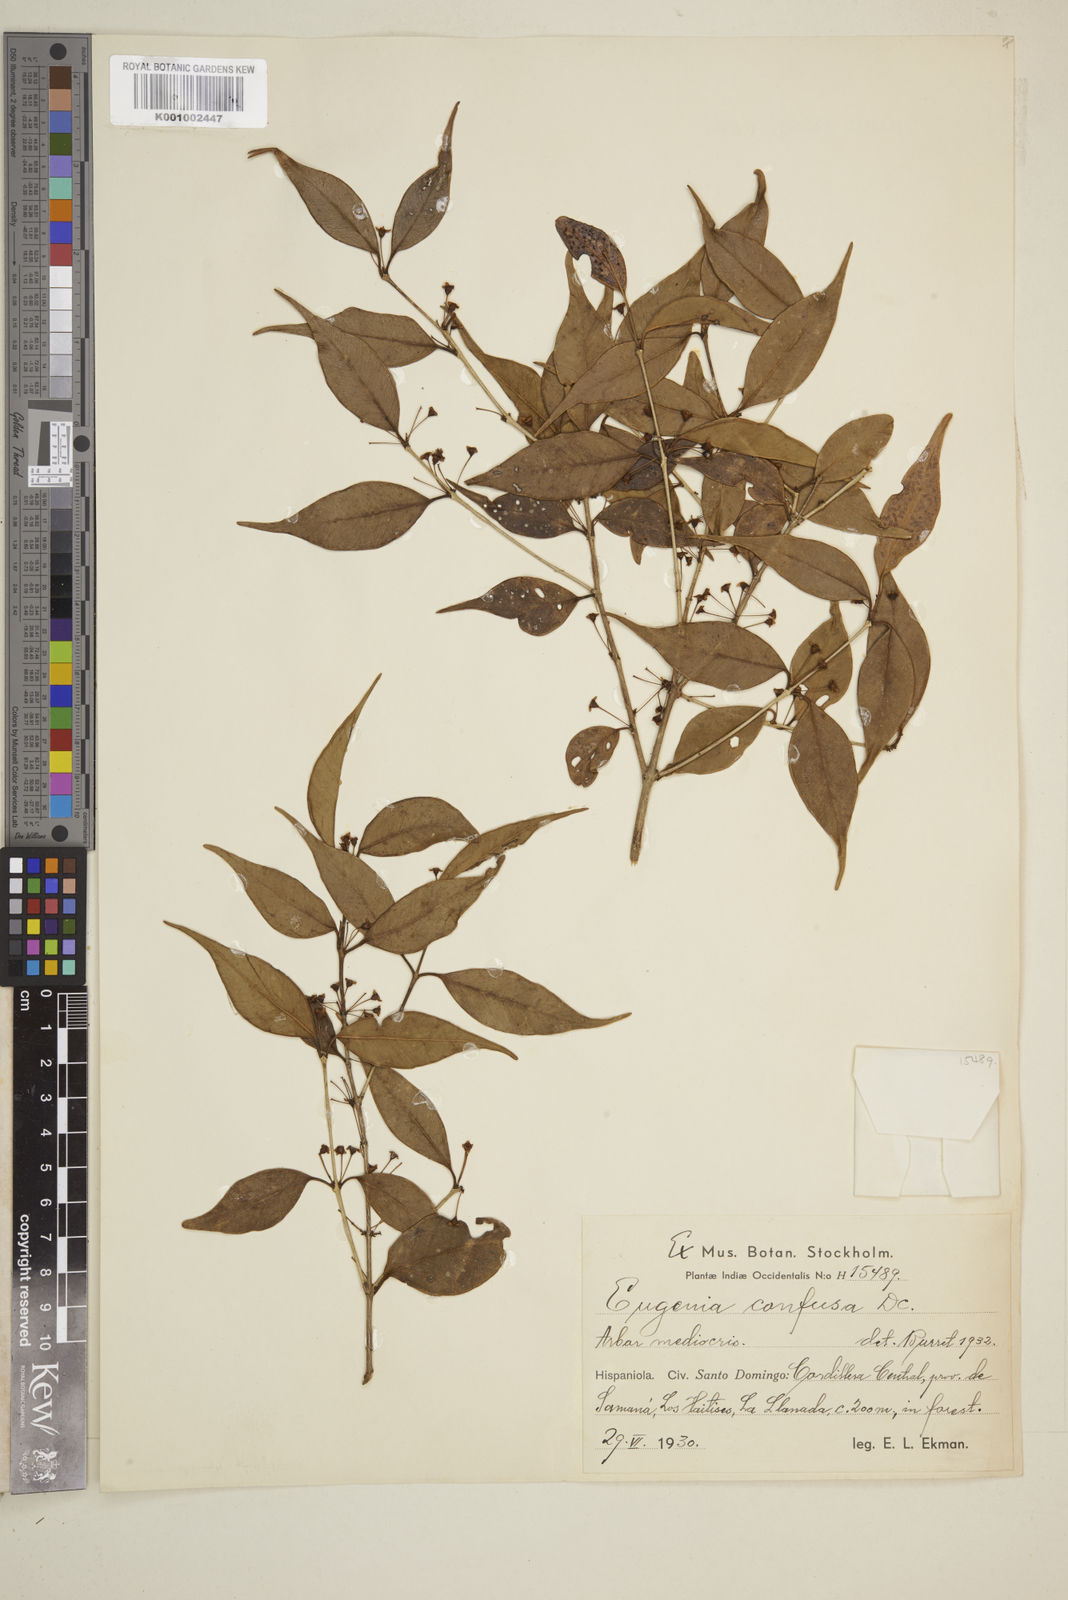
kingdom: Plantae
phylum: Tracheophyta
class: Magnoliopsida
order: Myrtales
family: Myrtaceae
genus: Eugenia
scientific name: Eugenia confusa
